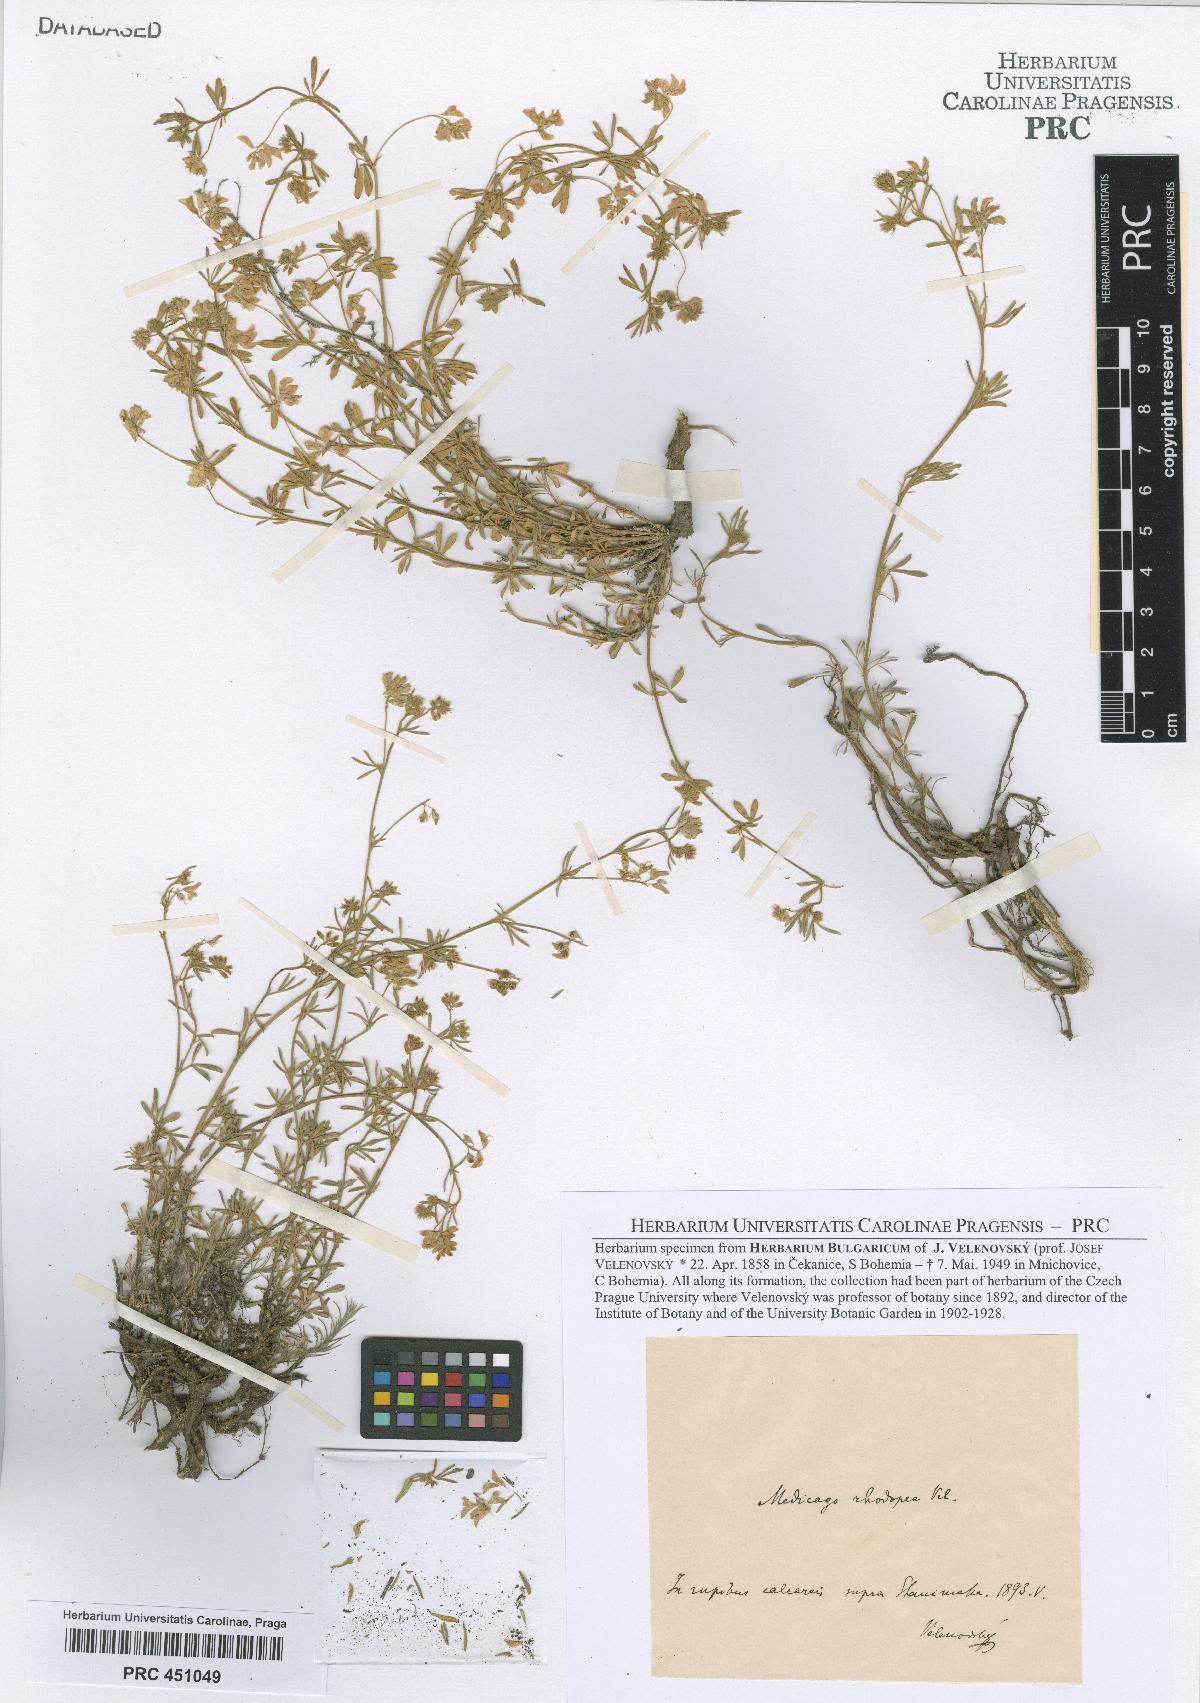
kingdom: Plantae
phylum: Tracheophyta
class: Magnoliopsida
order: Fabales
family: Fabaceae
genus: Medicago
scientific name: Medicago rhodopea
